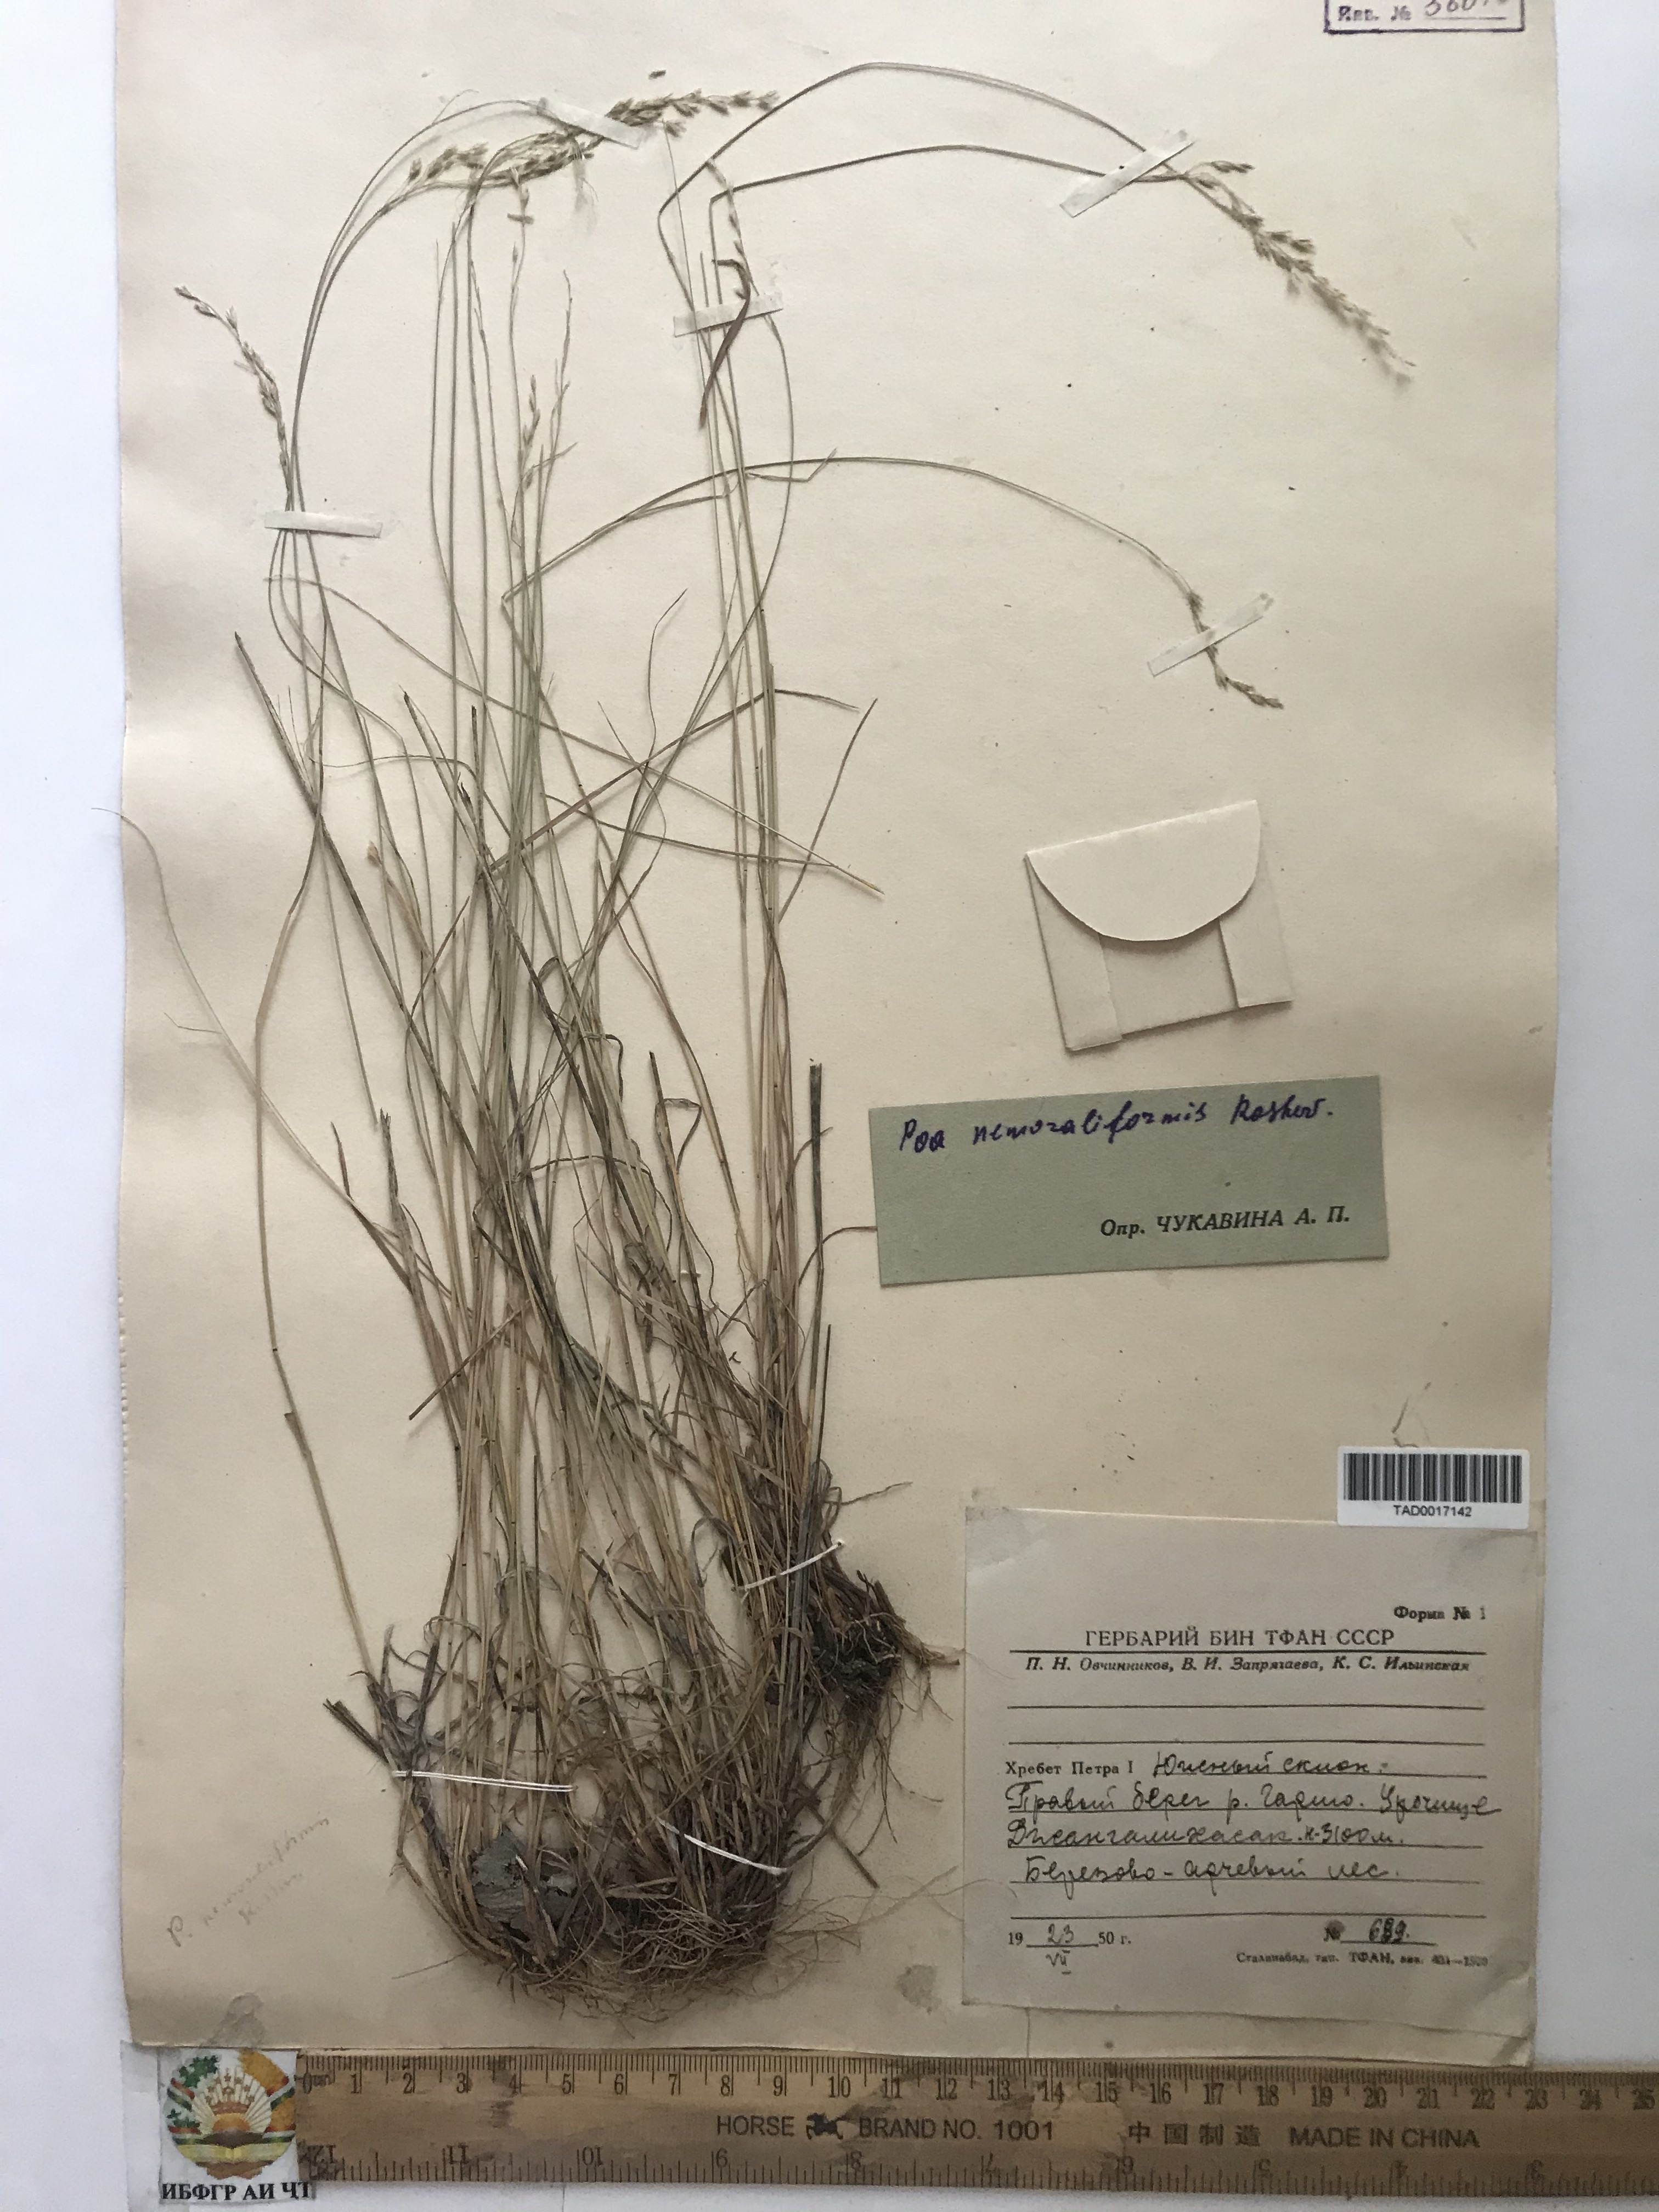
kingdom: Plantae
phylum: Tracheophyta
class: Liliopsida
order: Poales
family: Poaceae
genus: Poa
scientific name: Poa urssulensis
